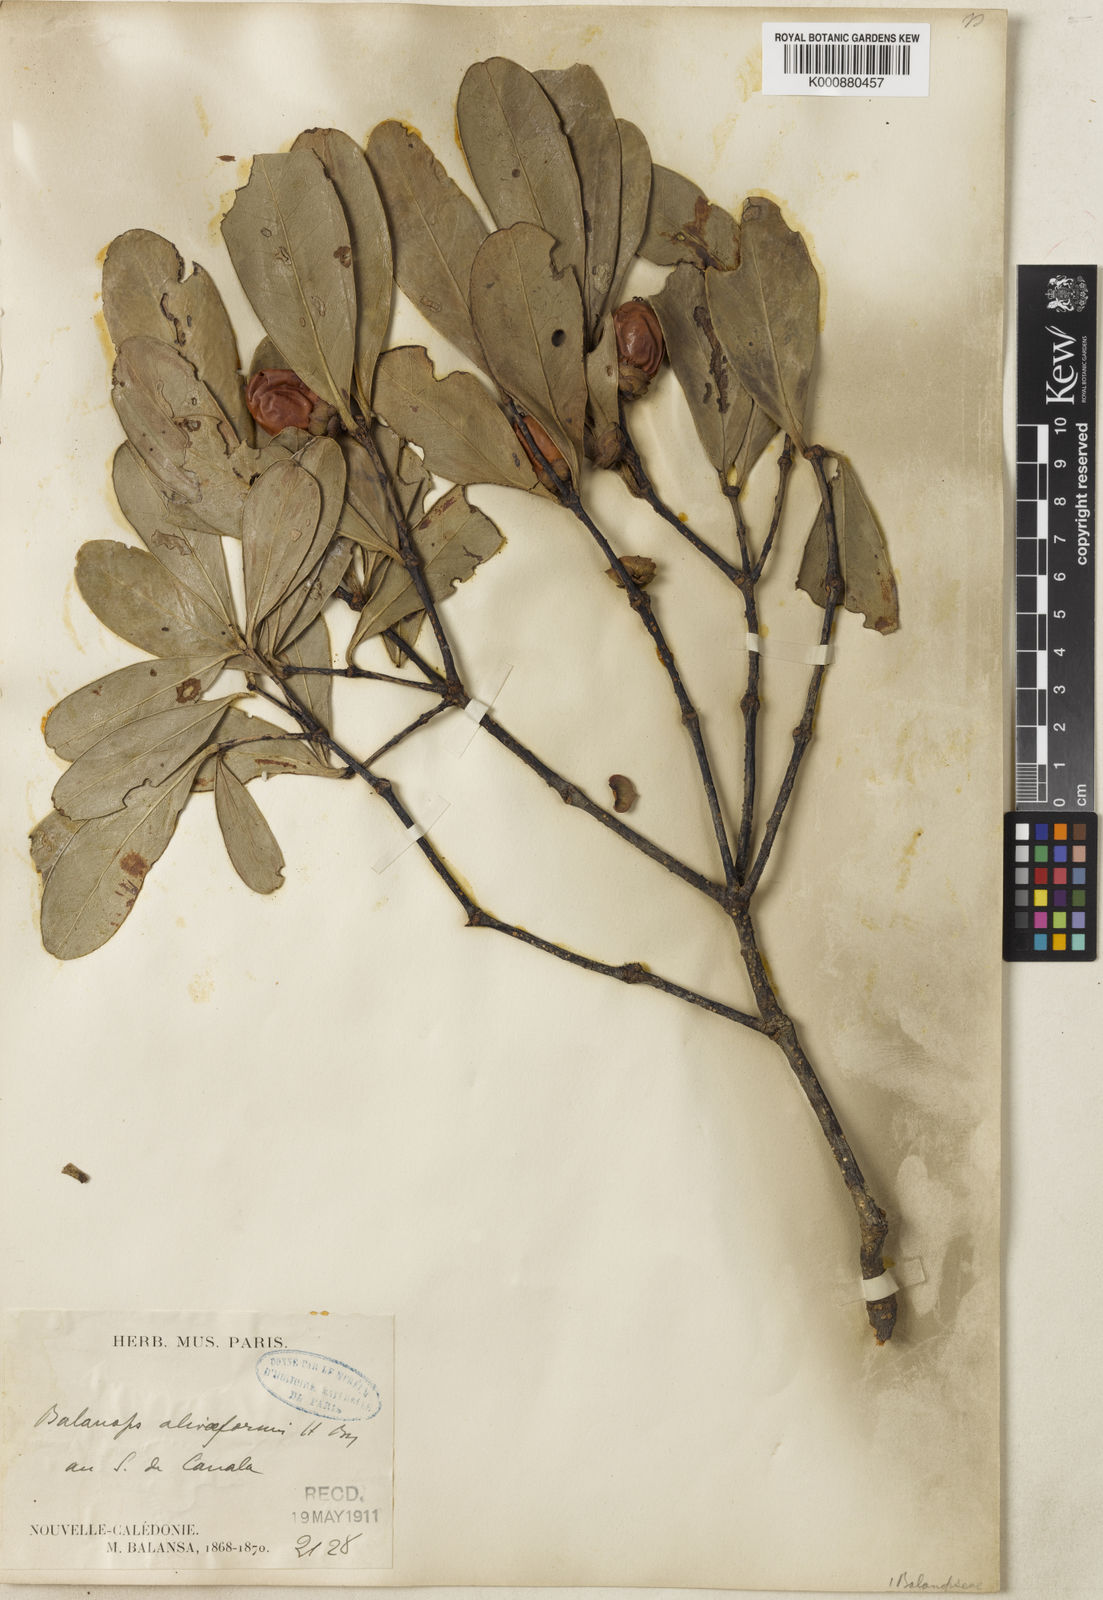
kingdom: Plantae
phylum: Tracheophyta
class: Magnoliopsida
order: Malpighiales
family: Balanopaceae
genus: Balanops
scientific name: Balanops oliviformis
